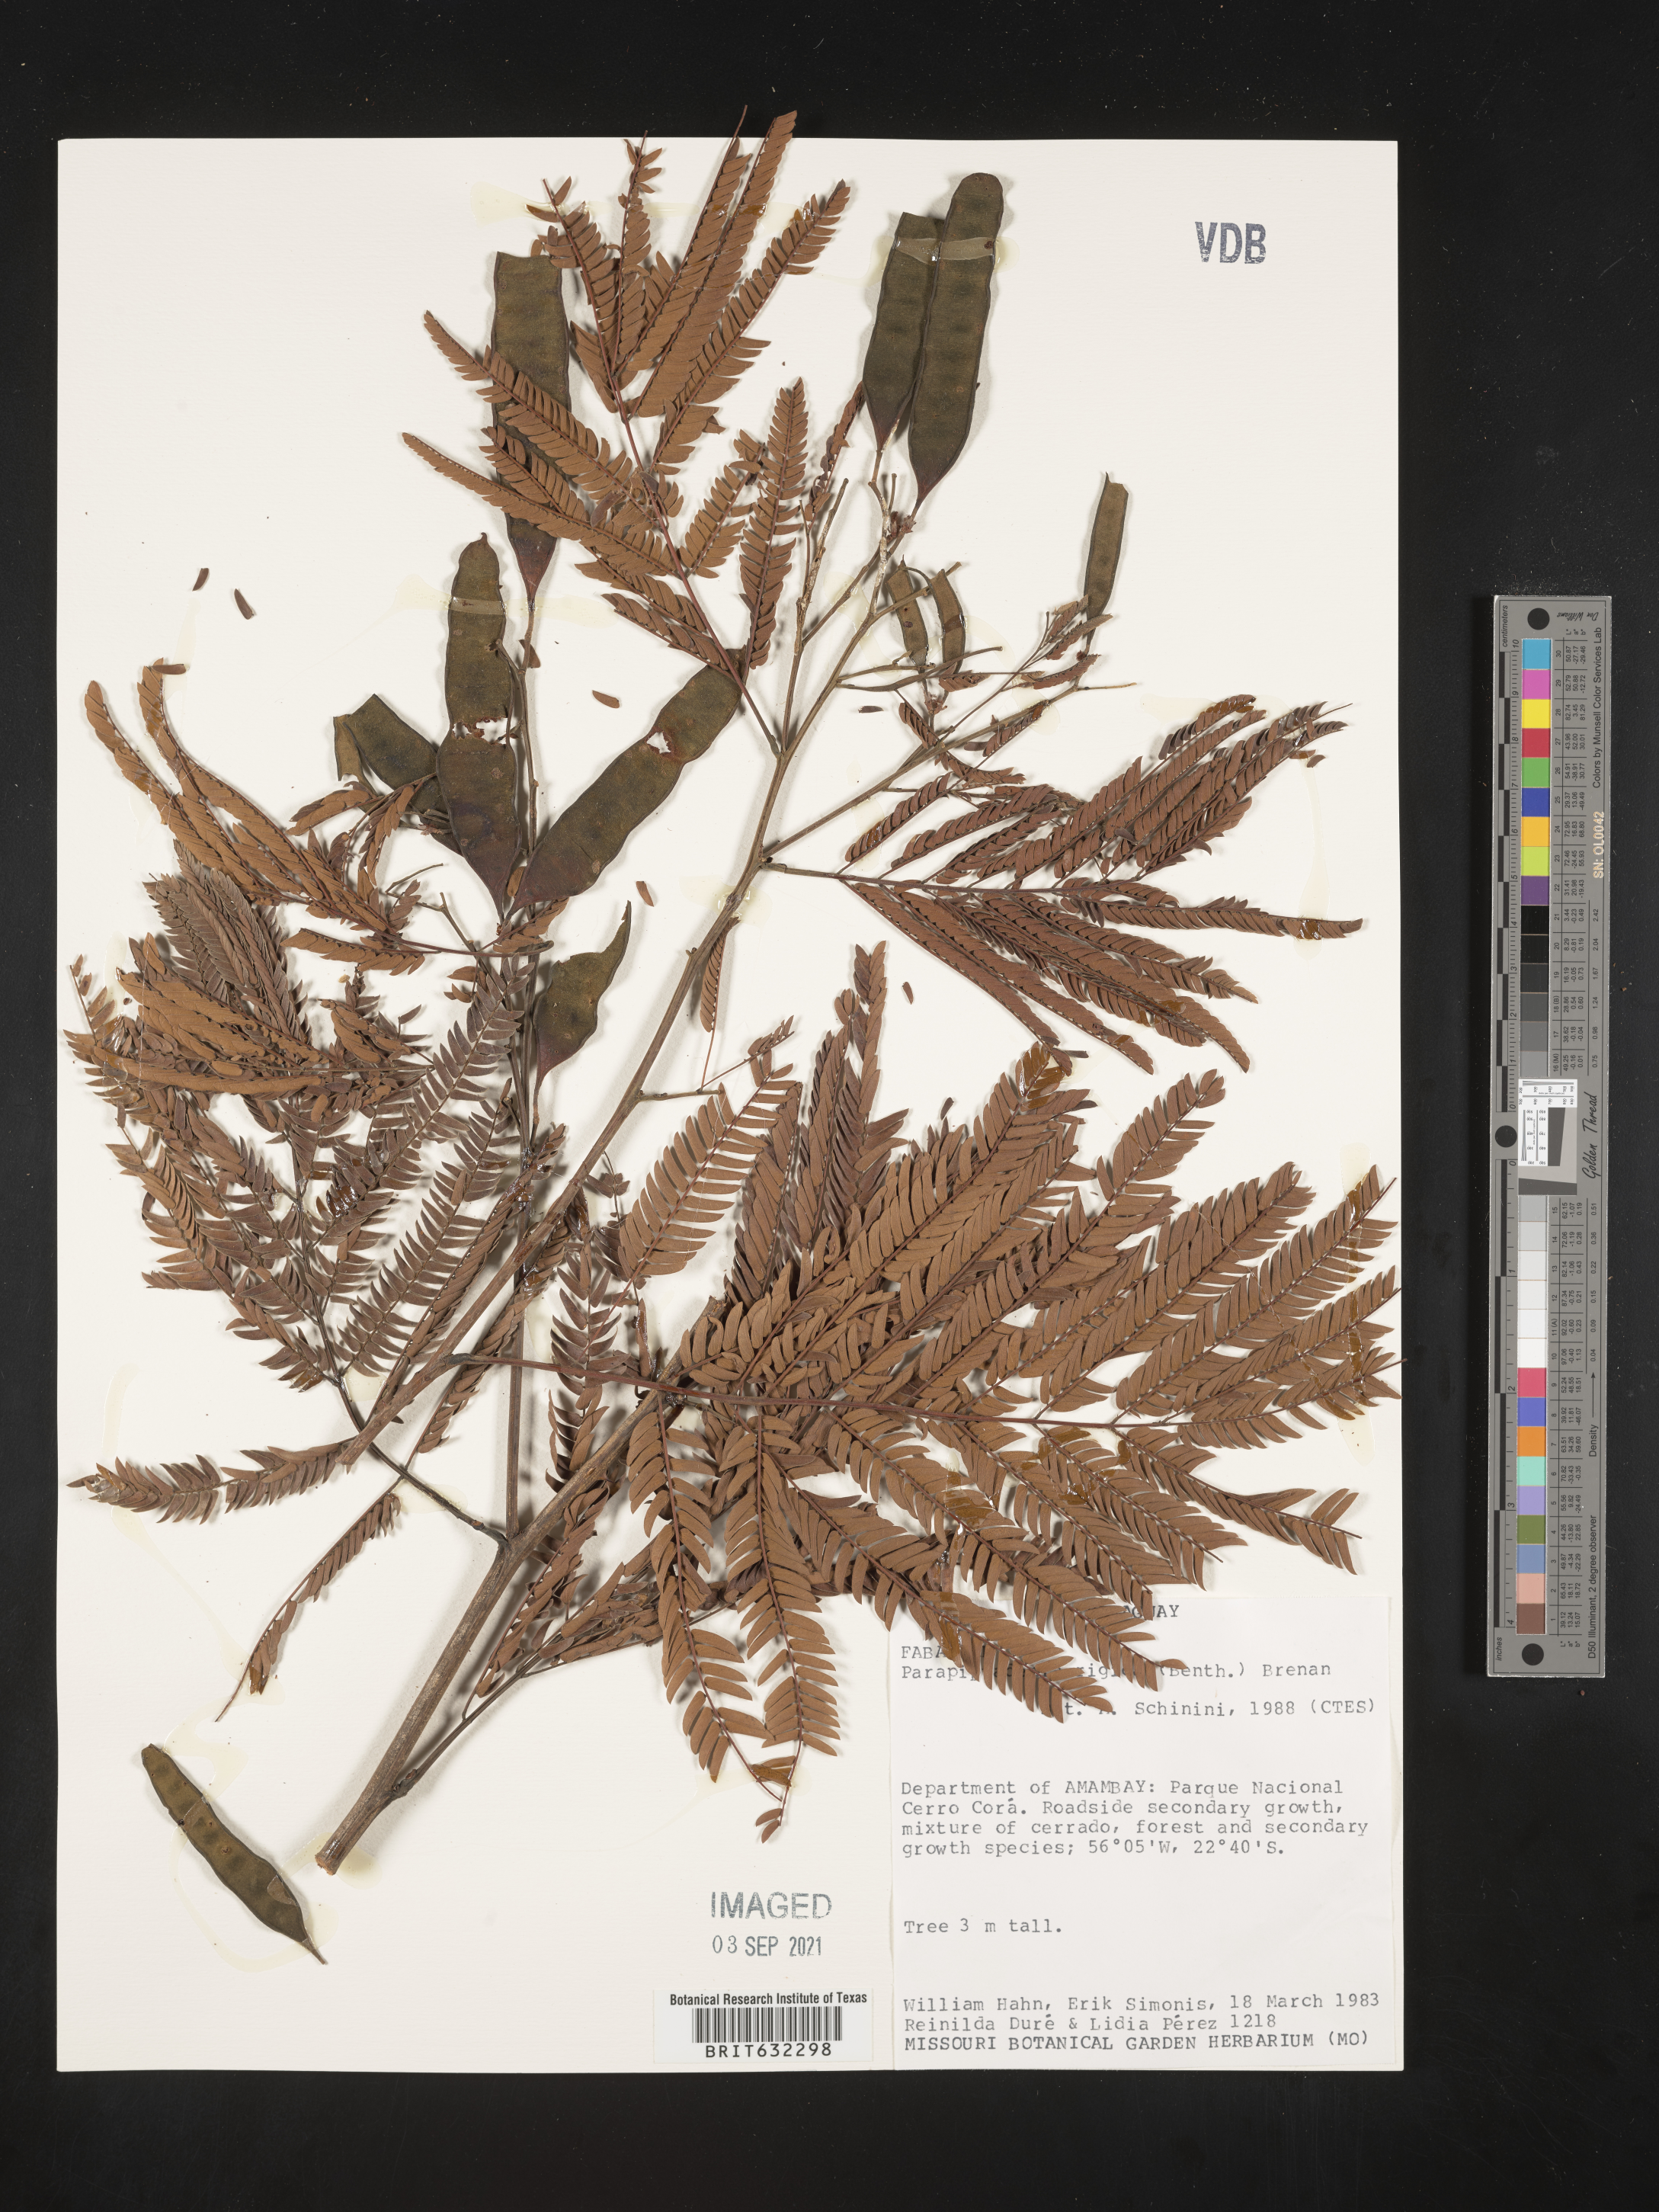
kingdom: Plantae
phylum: Tracheophyta
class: Magnoliopsida
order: Fabales
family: Fabaceae
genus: Parapiptadenia
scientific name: Parapiptadenia
